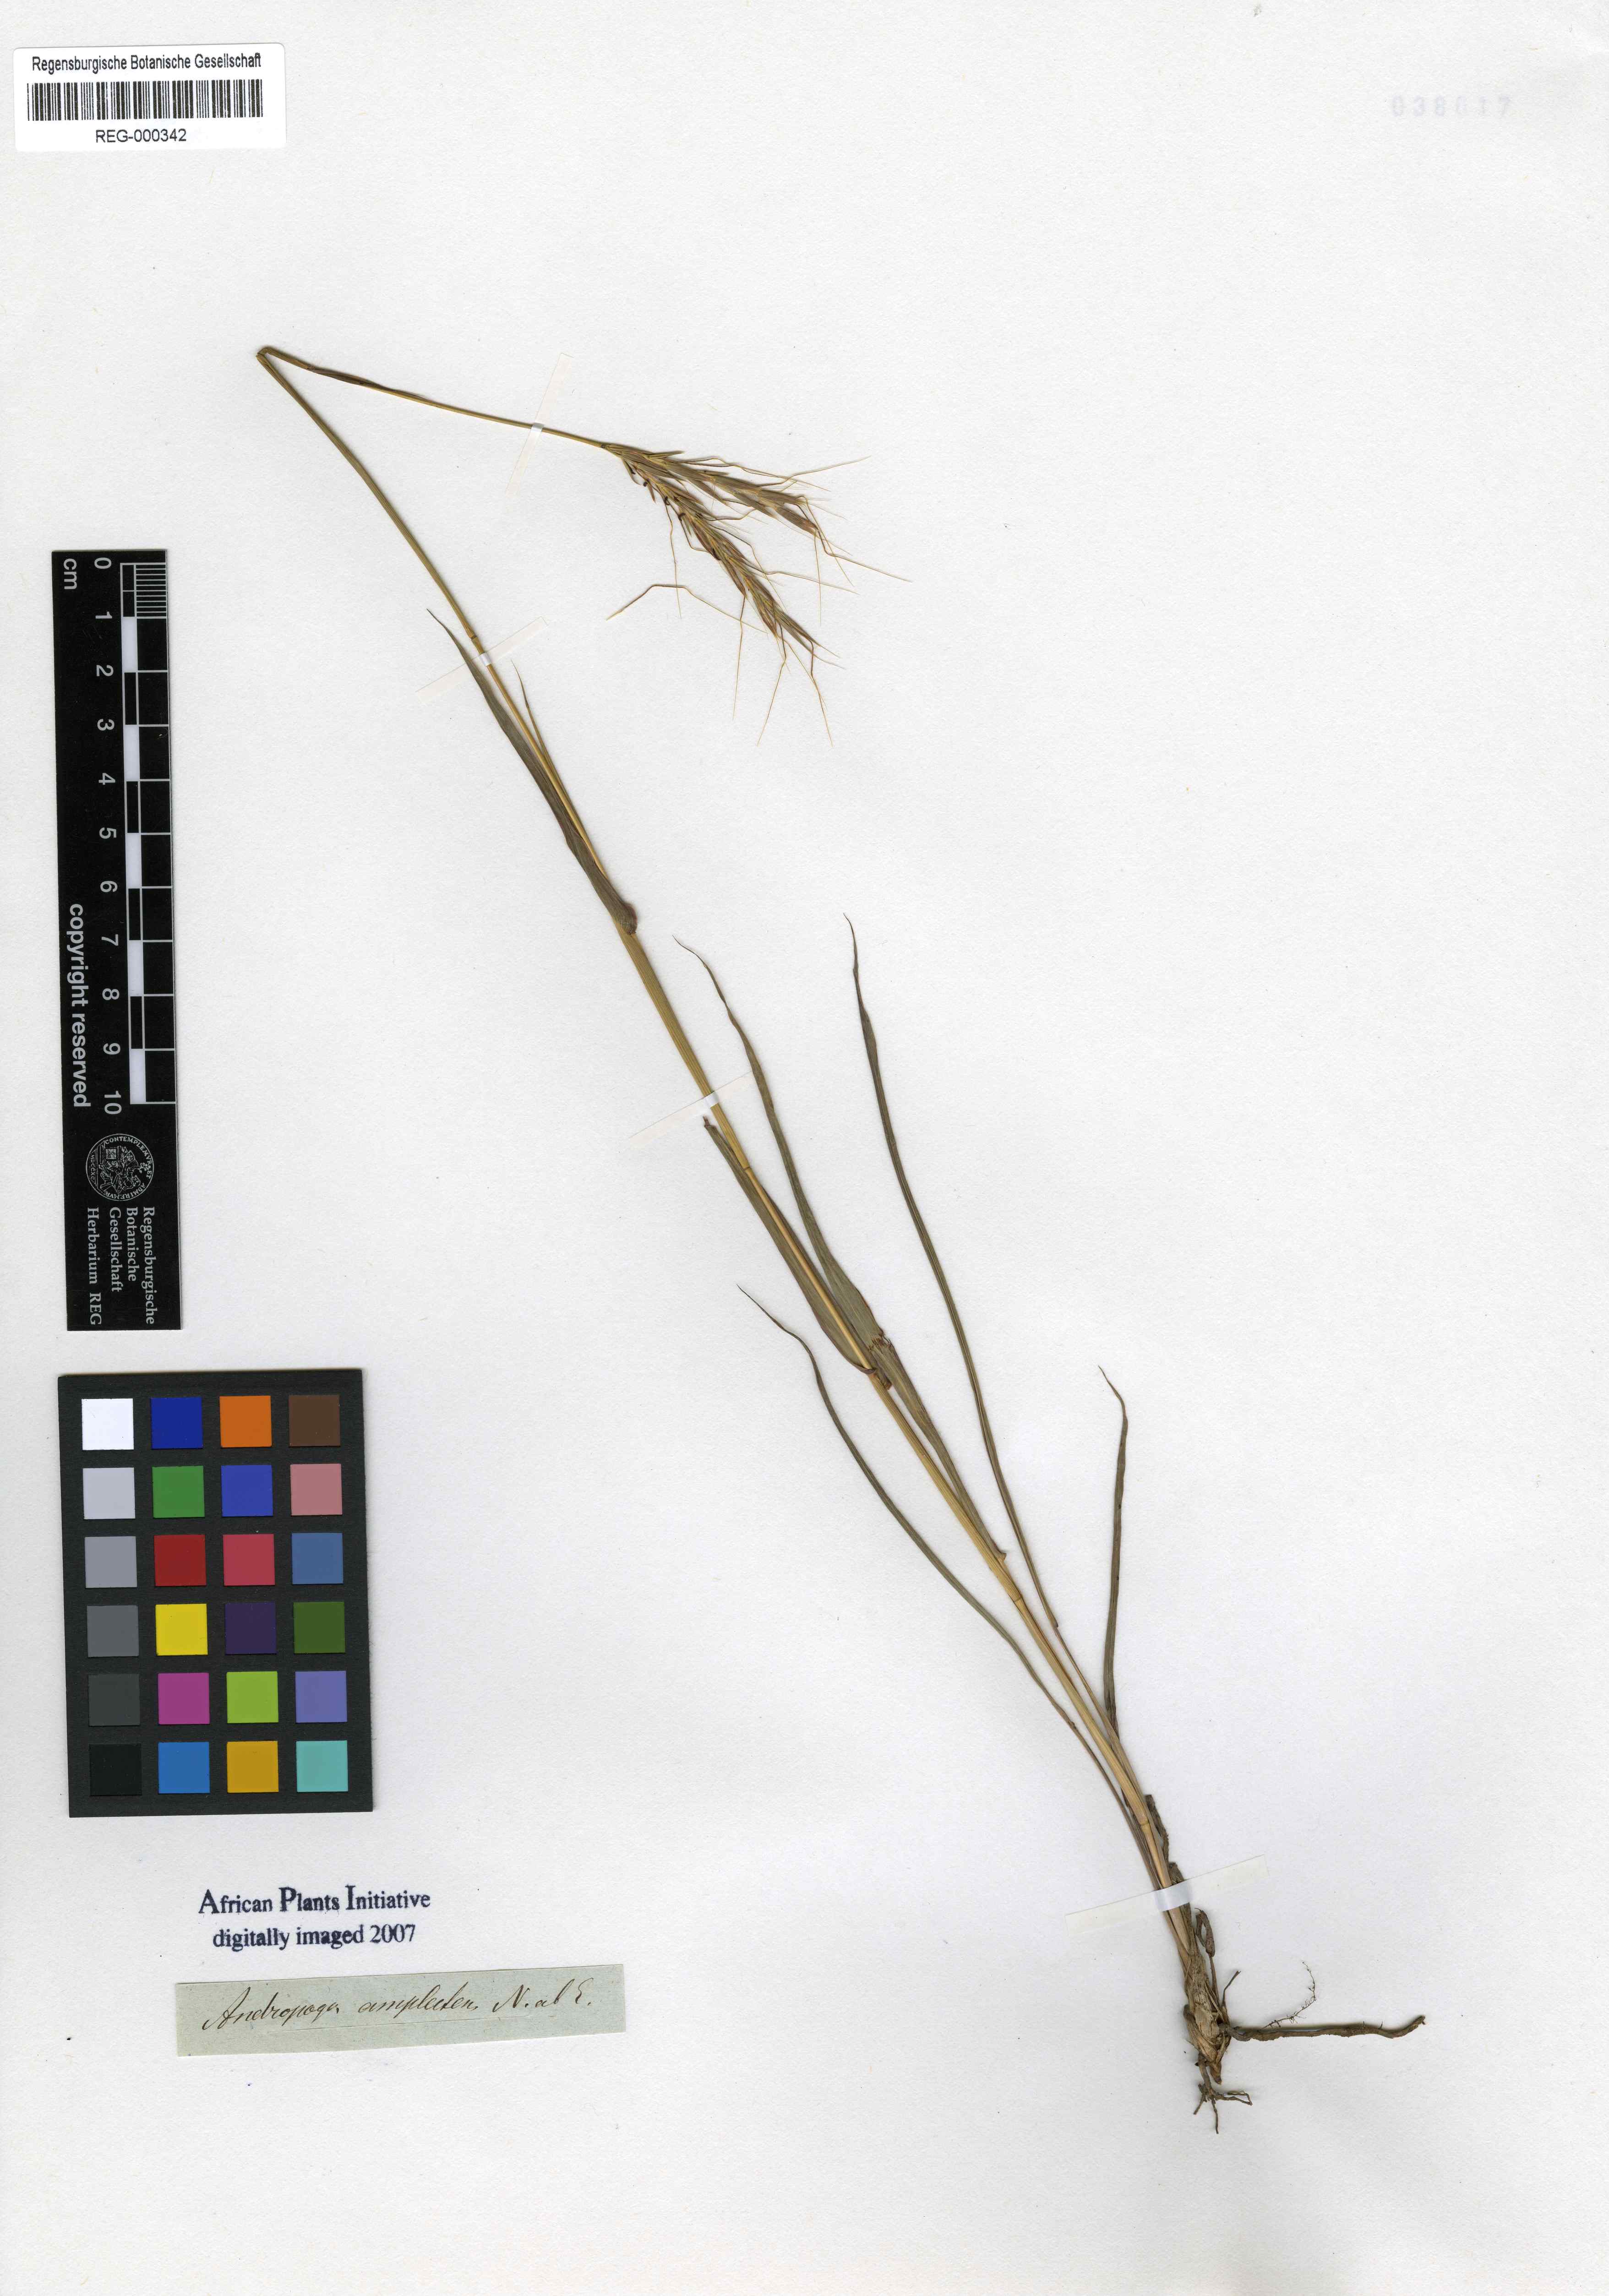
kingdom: Plantae
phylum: Tracheophyta
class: Liliopsida
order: Poales
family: Poaceae
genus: Diheteropogon
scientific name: Diheteropogon amplectens
